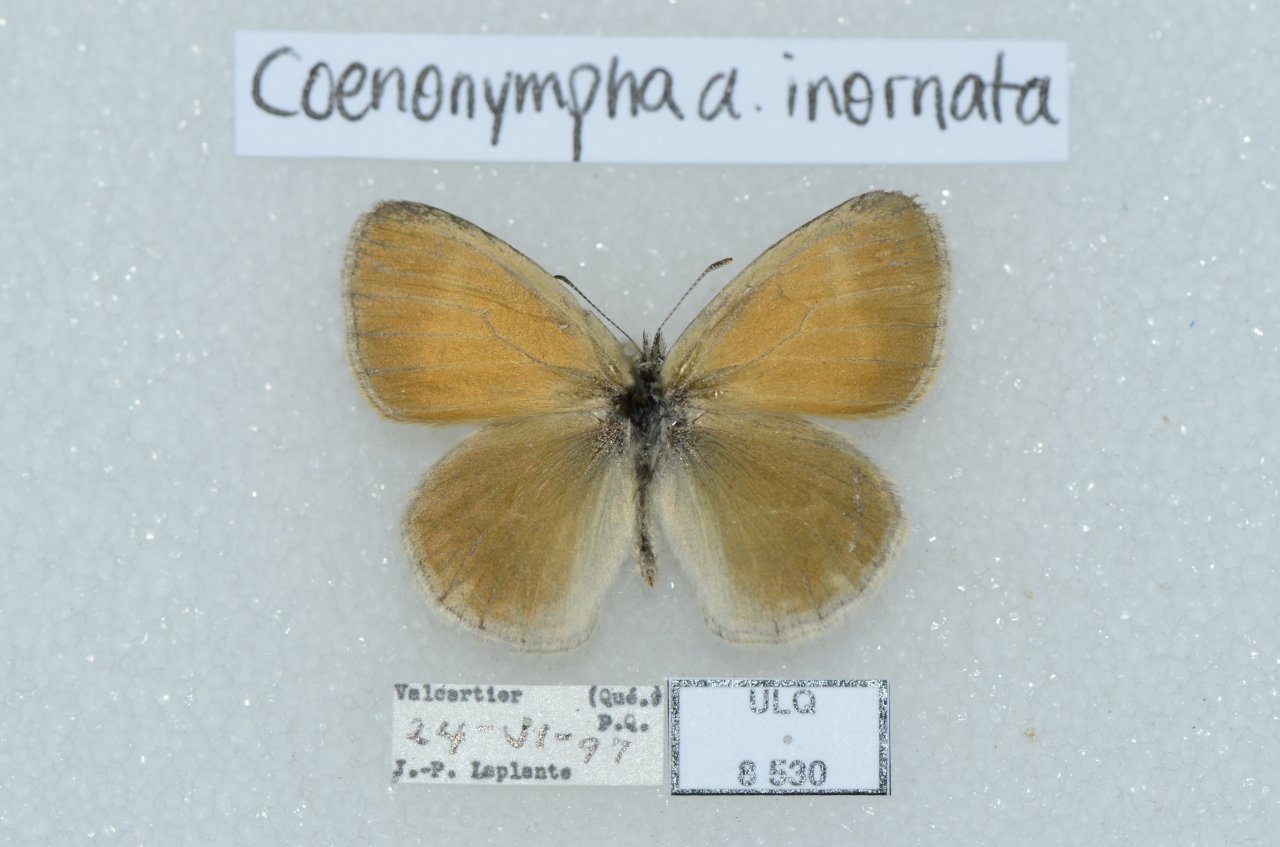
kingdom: Animalia
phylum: Arthropoda
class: Insecta
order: Lepidoptera
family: Nymphalidae
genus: Coenonympha
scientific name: Coenonympha tullia
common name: Large Heath
